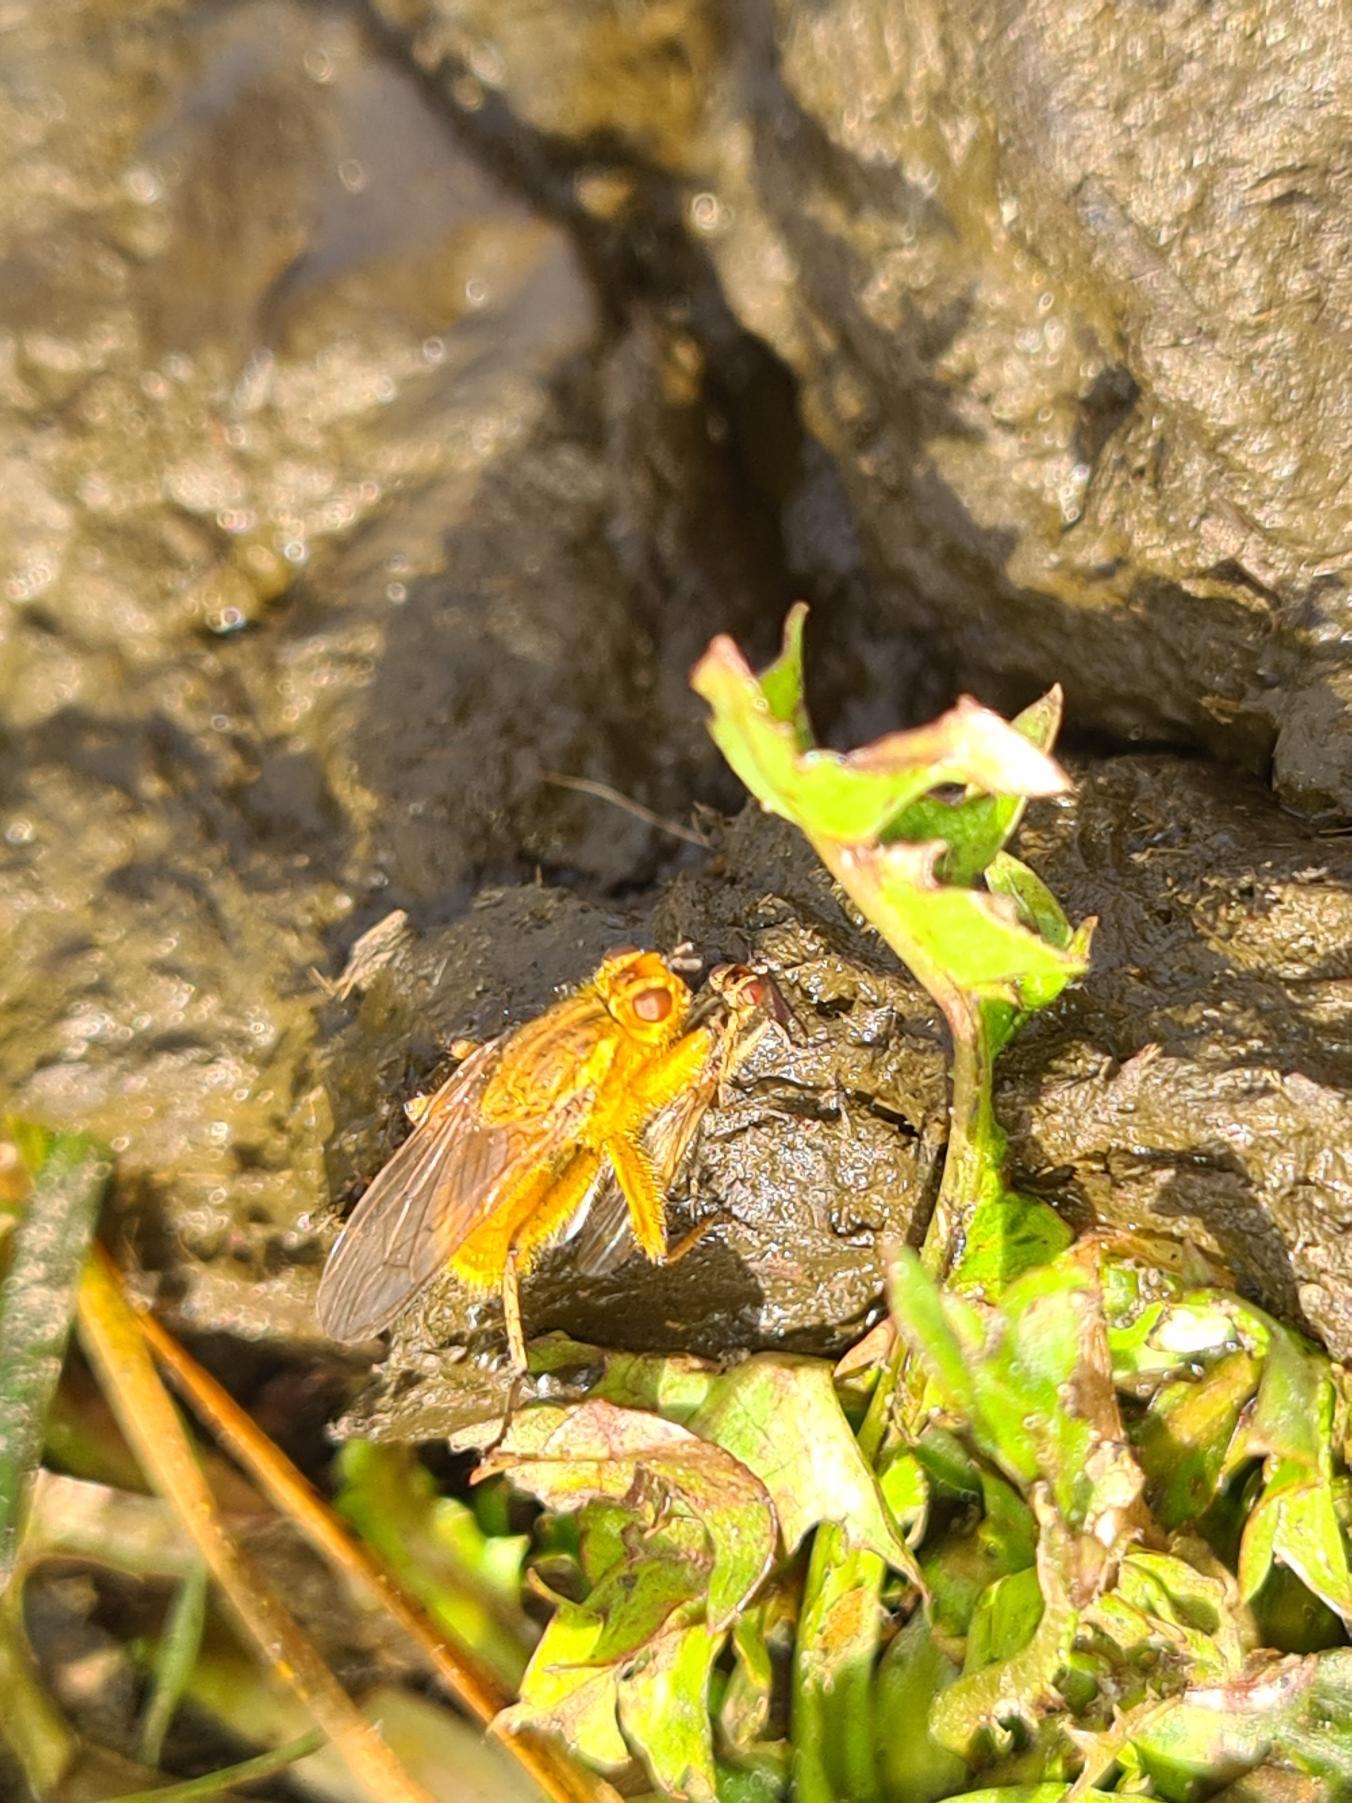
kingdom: Animalia
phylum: Arthropoda
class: Insecta
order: Diptera
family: Scathophagidae
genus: Scathophaga
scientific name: Scathophaga stercoraria
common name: Almindelig gødningsflue
